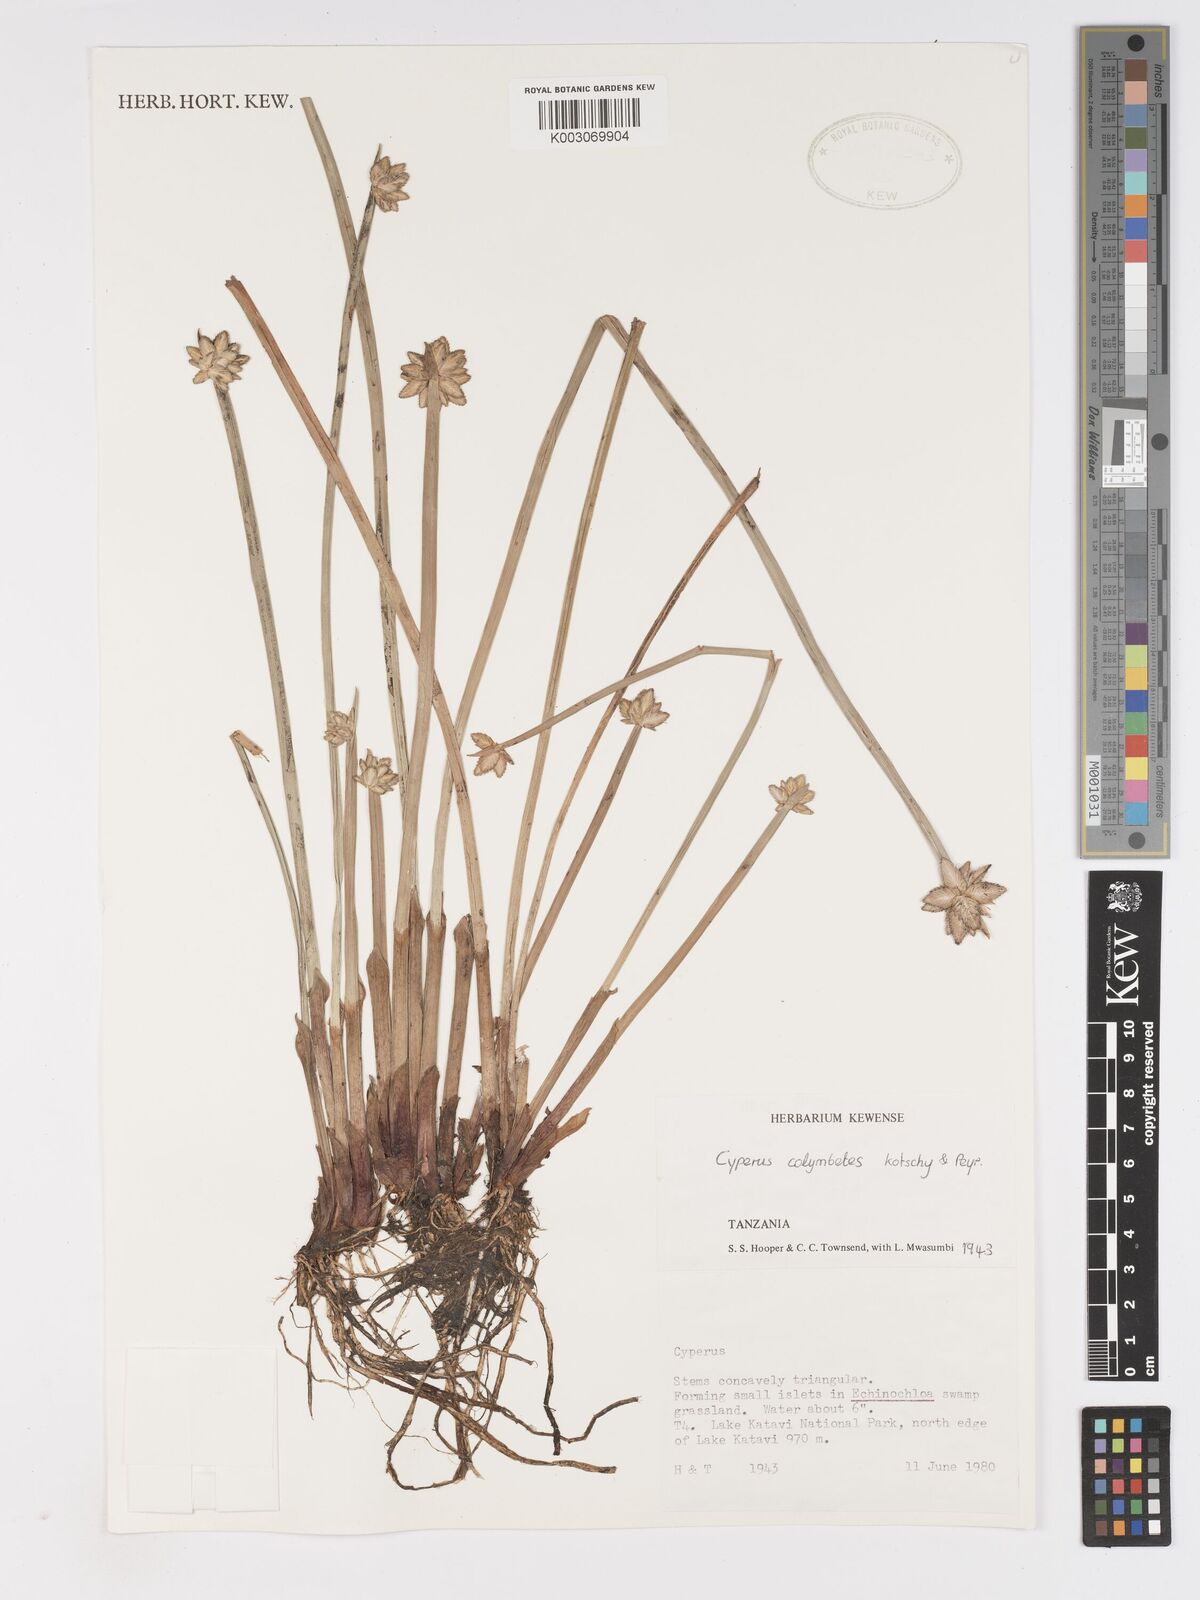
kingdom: Plantae
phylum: Tracheophyta
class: Liliopsida
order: Poales
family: Cyperaceae
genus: Cyperus
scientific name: Cyperus colymbetes
